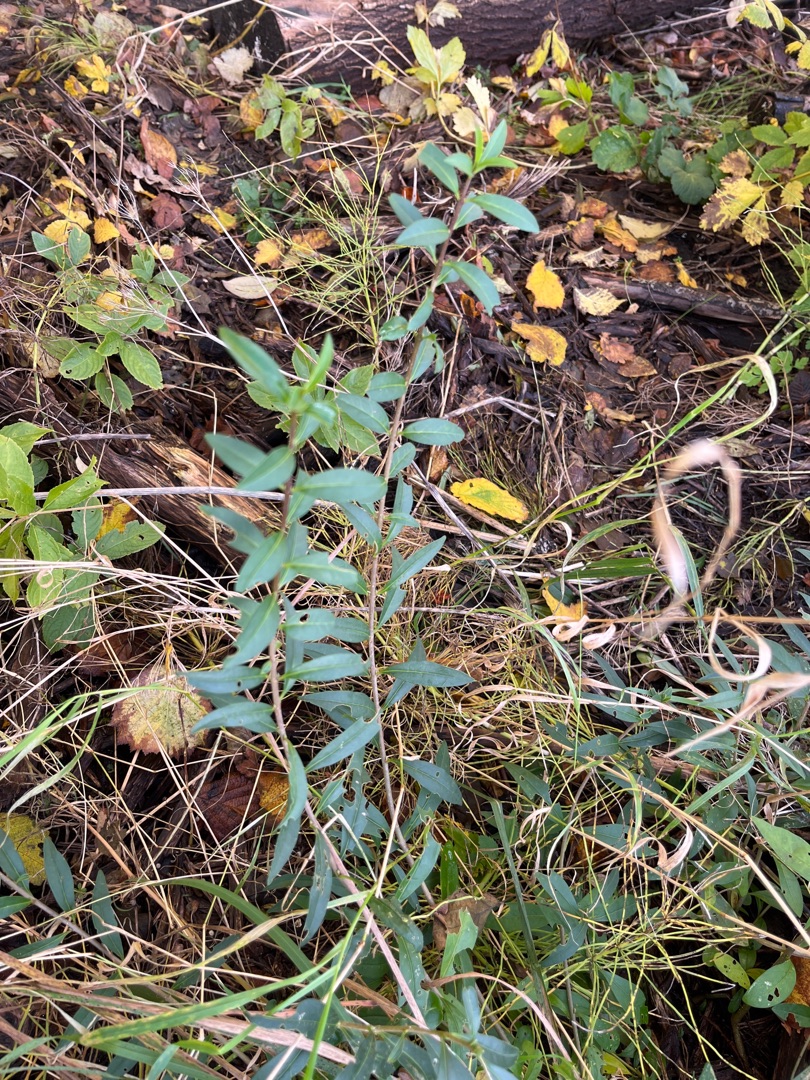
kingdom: Plantae
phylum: Tracheophyta
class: Magnoliopsida
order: Lamiales
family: Oleaceae
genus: Ligustrum
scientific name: Ligustrum vulgare
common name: Liguster
